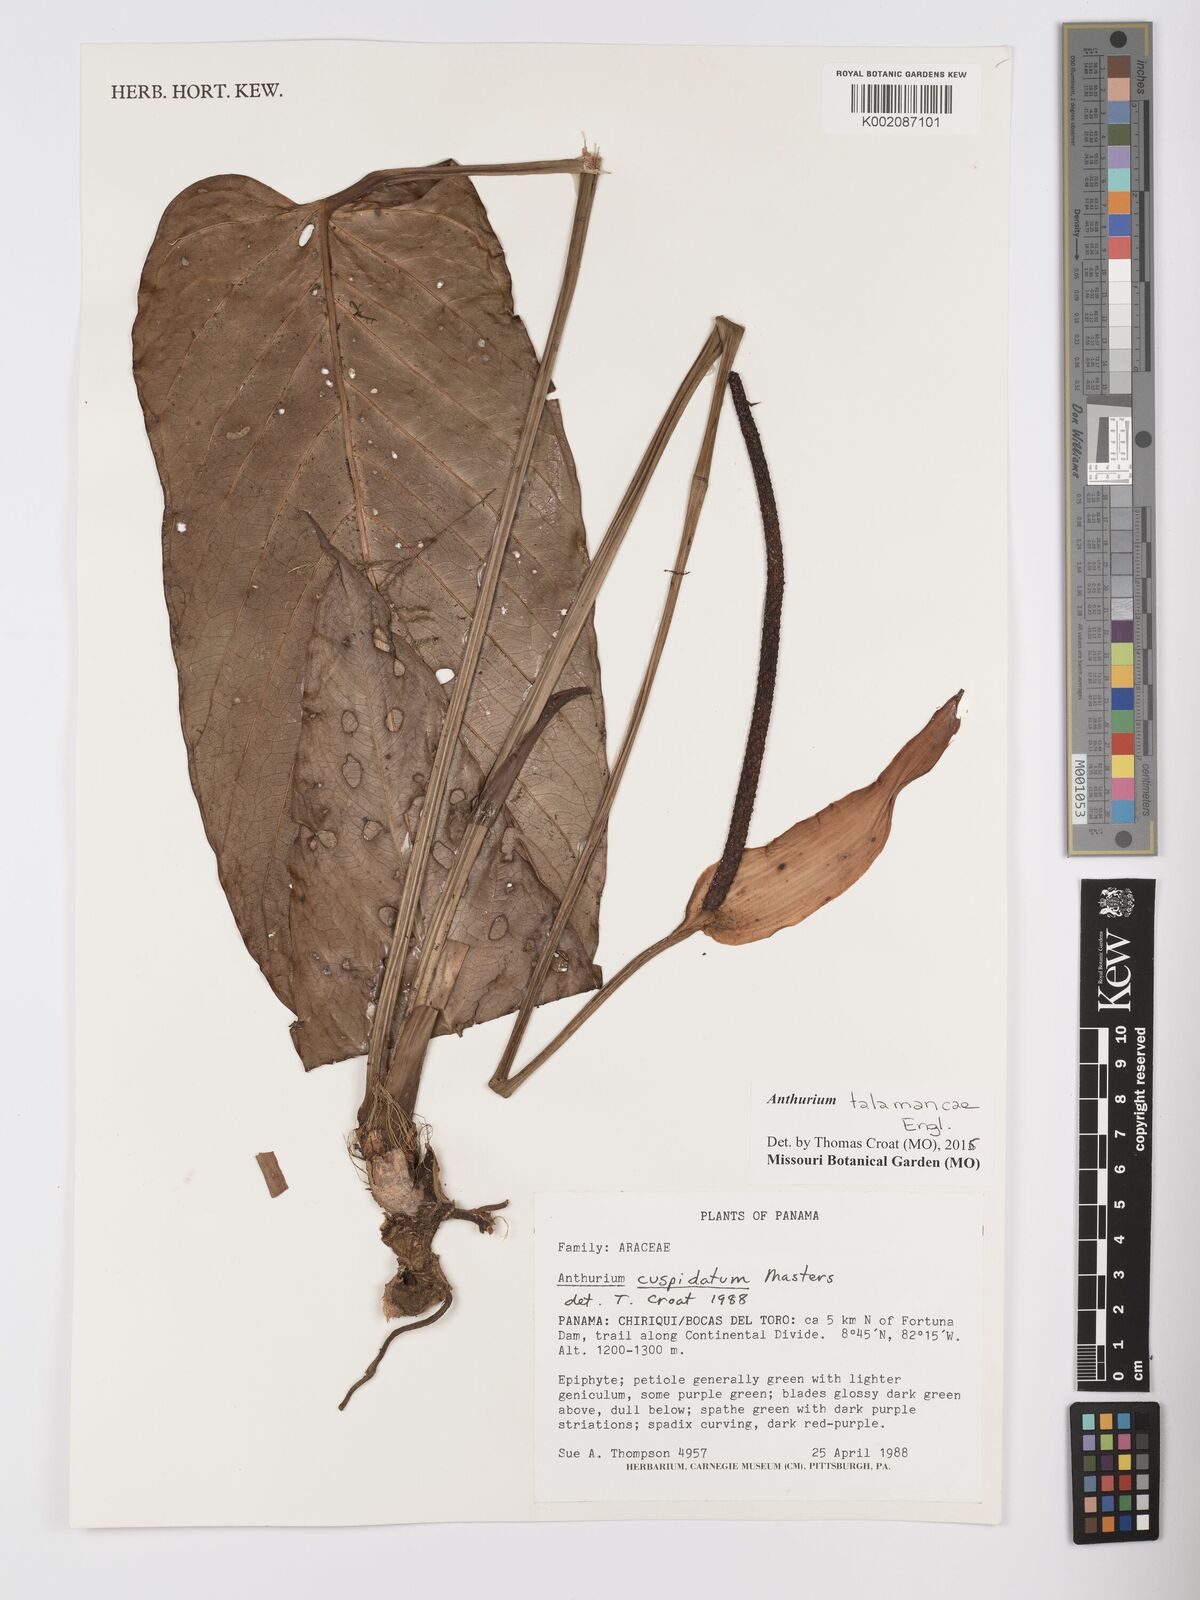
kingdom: Plantae
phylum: Tracheophyta
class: Liliopsida
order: Alismatales
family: Araceae
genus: Anthurium
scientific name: Anthurium talamancae
